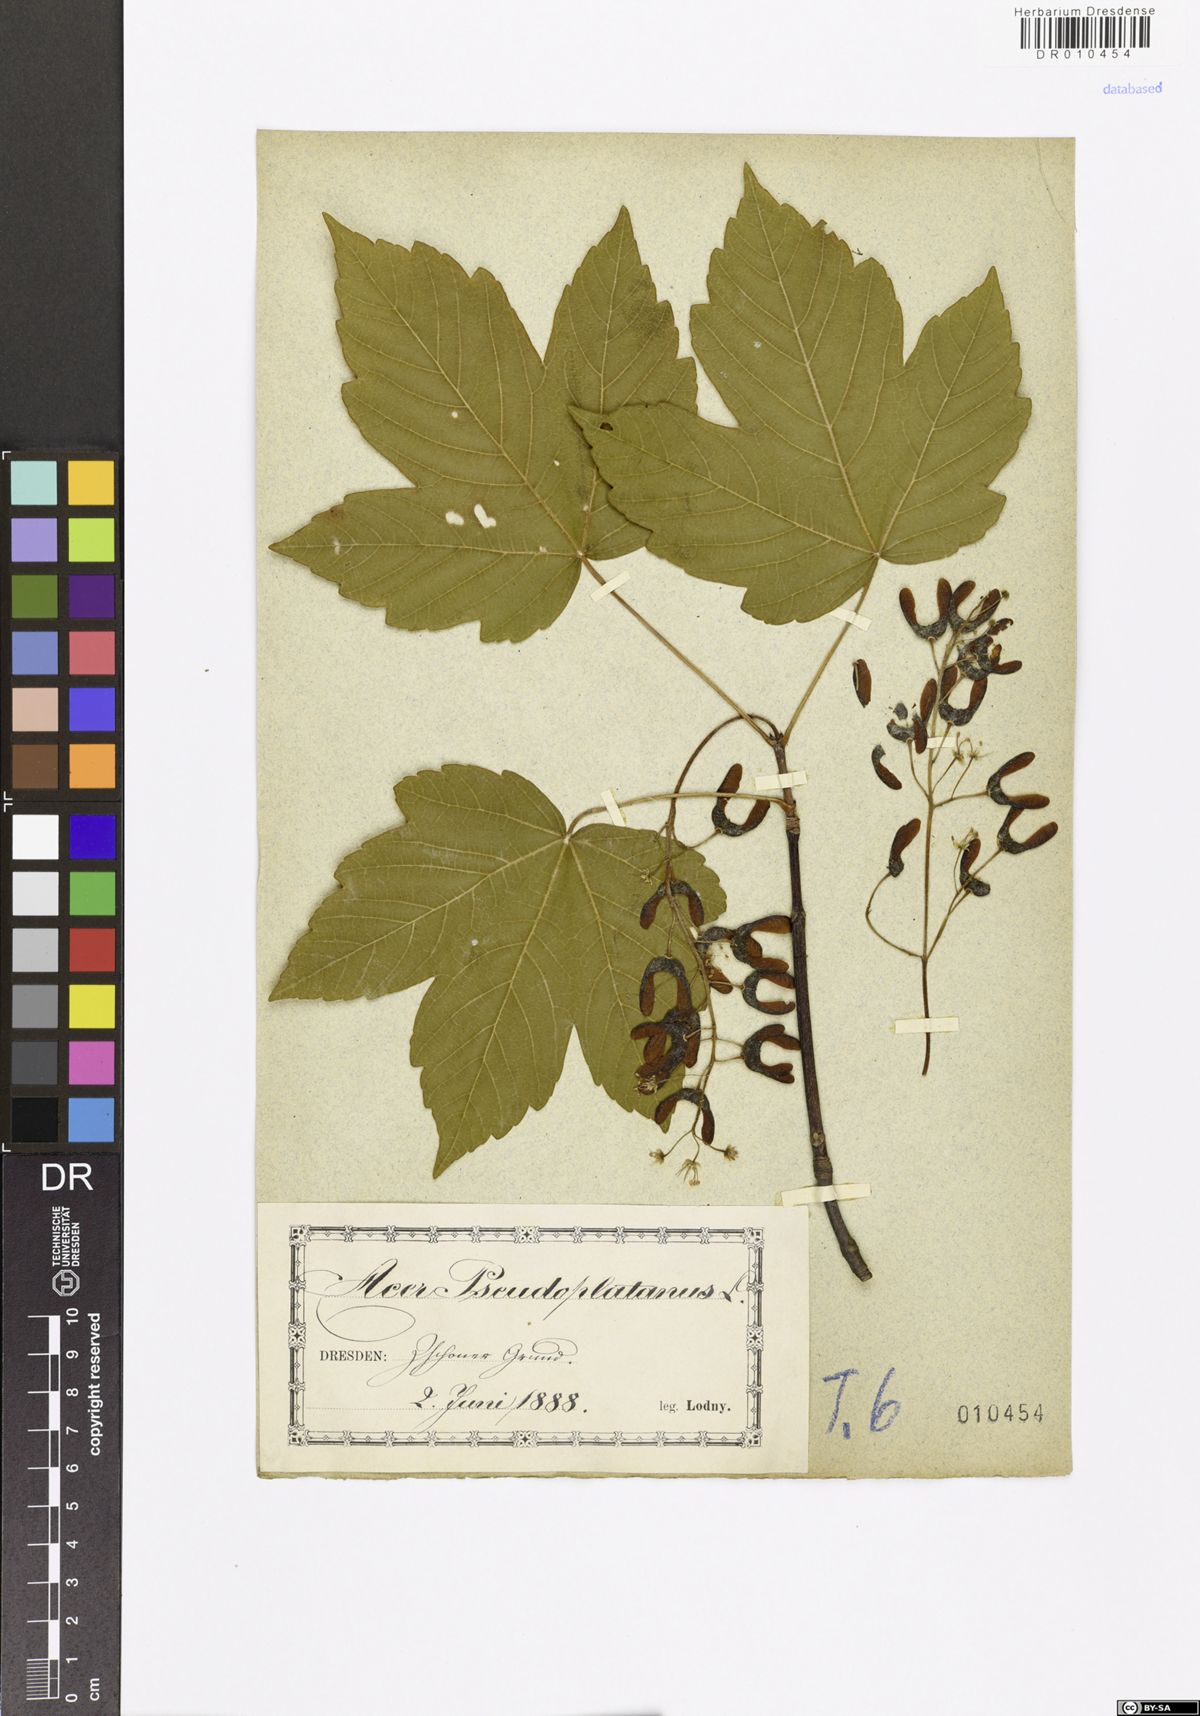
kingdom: Plantae
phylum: Tracheophyta
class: Magnoliopsida
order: Sapindales
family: Sapindaceae
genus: Acer
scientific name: Acer pseudoplatanus
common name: Sycamore
